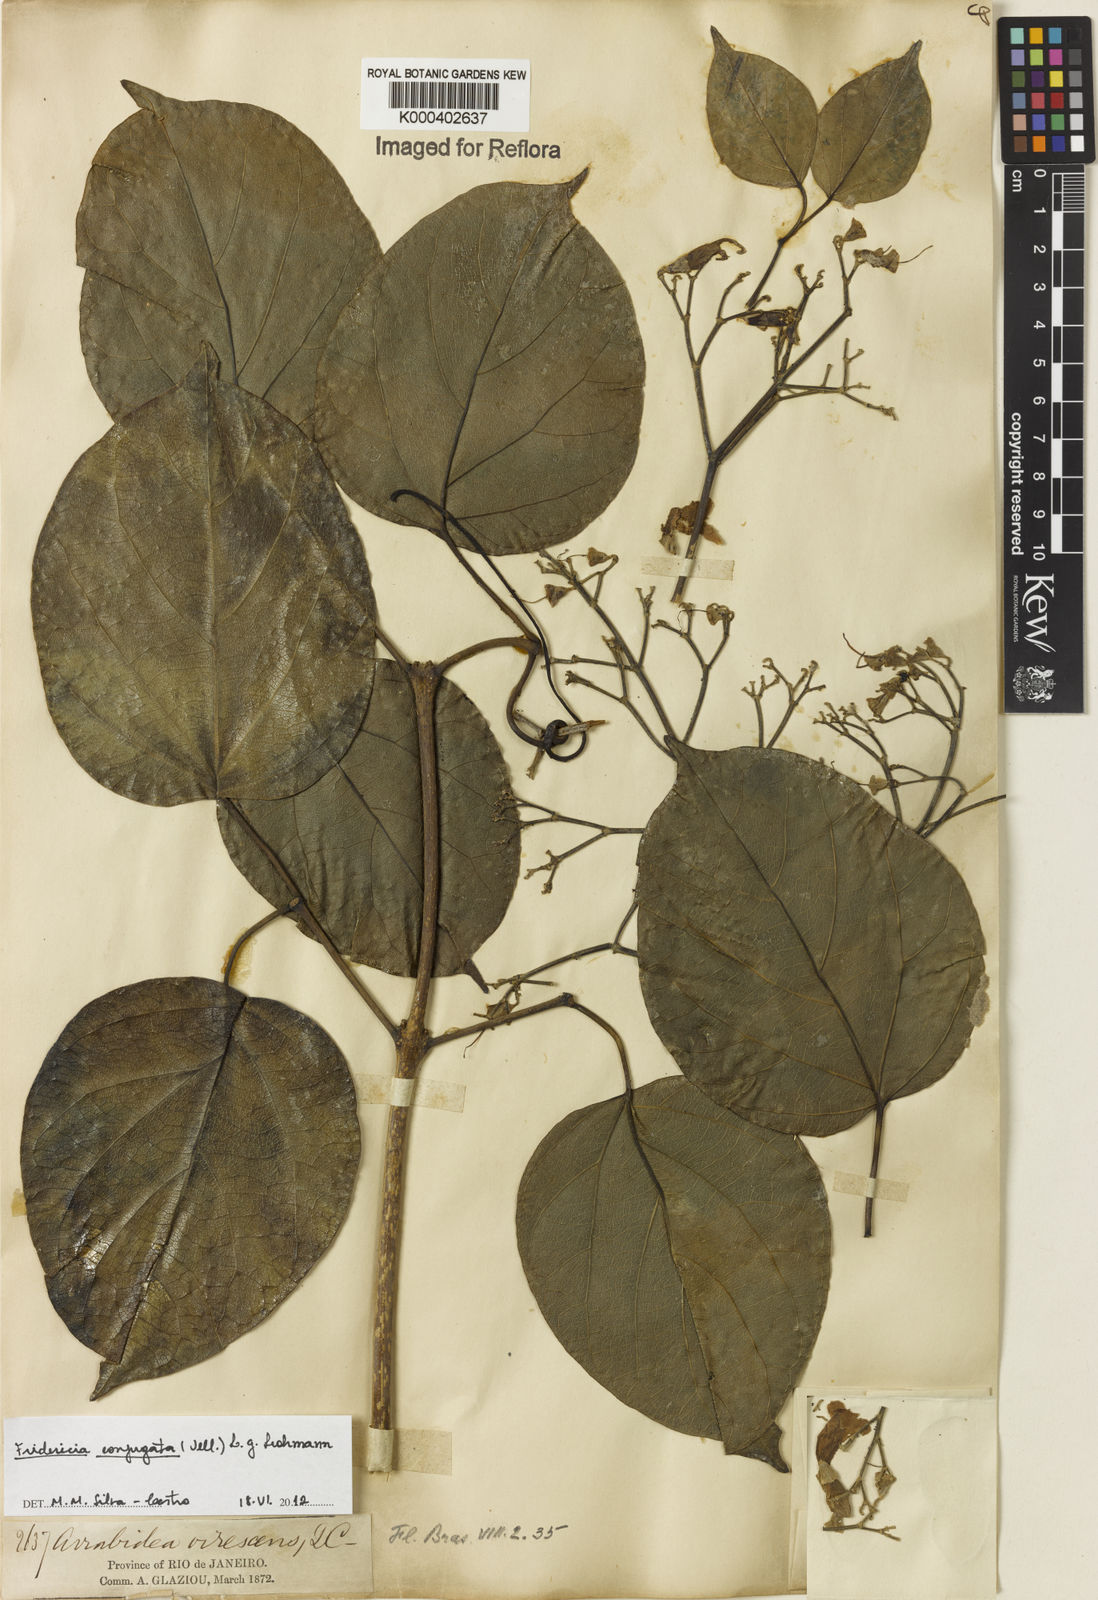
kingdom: Plantae
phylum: Tracheophyta
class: Magnoliopsida
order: Lamiales
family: Bignoniaceae
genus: Fridericia
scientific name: Fridericia conjugata
